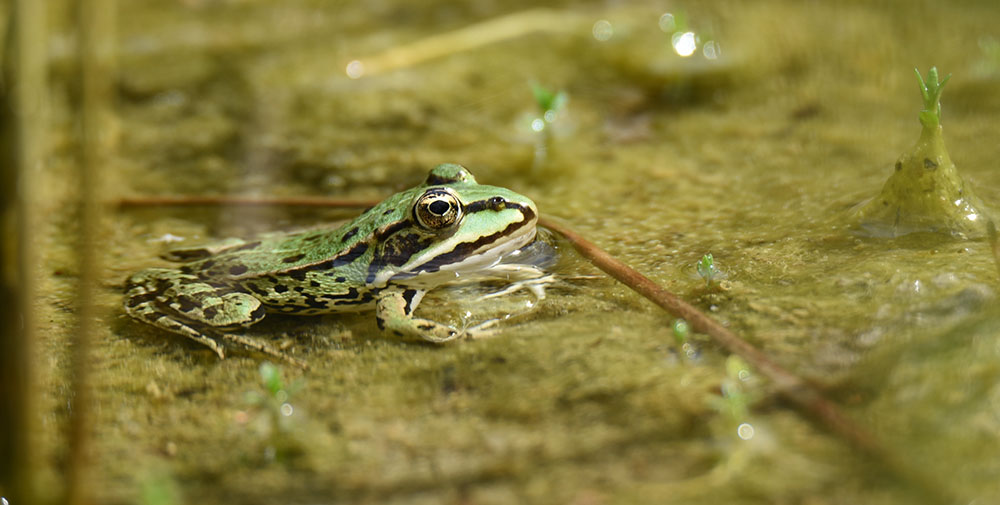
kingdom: Animalia
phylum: Chordata
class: Amphibia
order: Anura
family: Ranidae
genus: Pelophylax
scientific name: Pelophylax lessonae
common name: Pool frog
